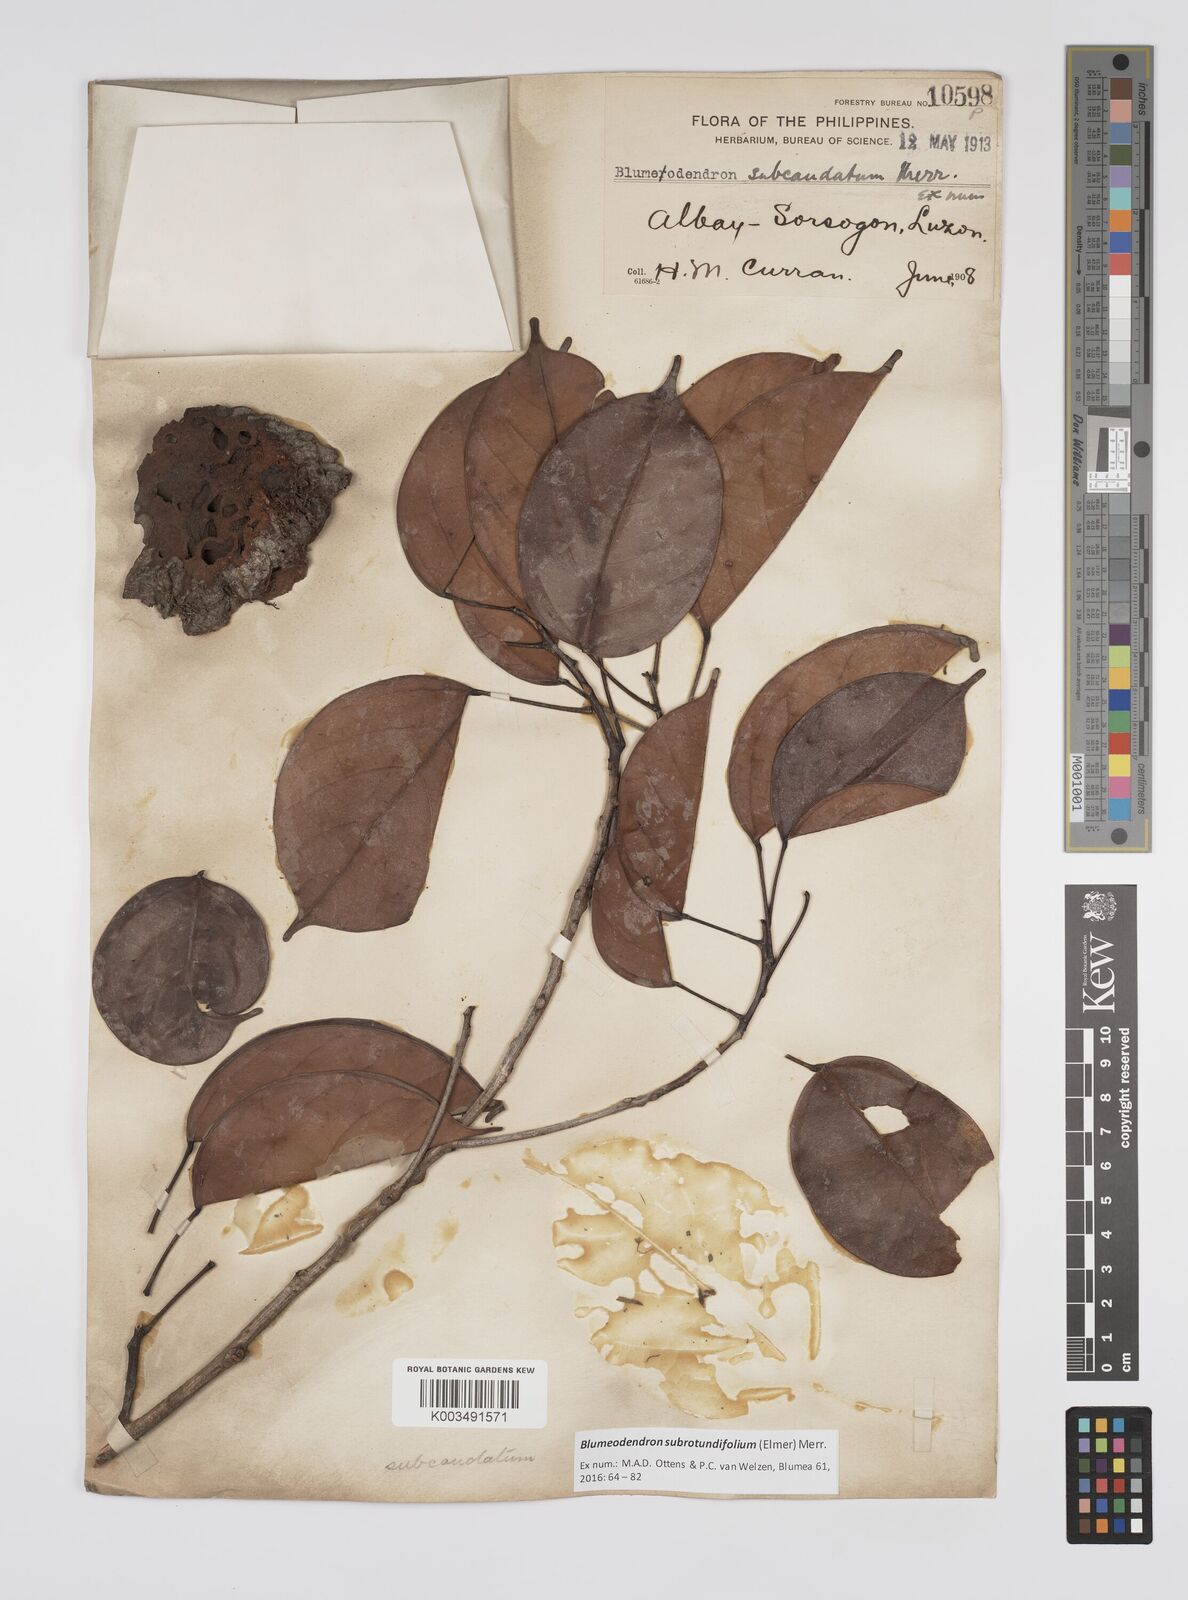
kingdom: Plantae
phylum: Tracheophyta
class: Magnoliopsida
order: Malpighiales
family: Euphorbiaceae
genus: Blumeodendron
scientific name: Blumeodendron subrotundifolium
